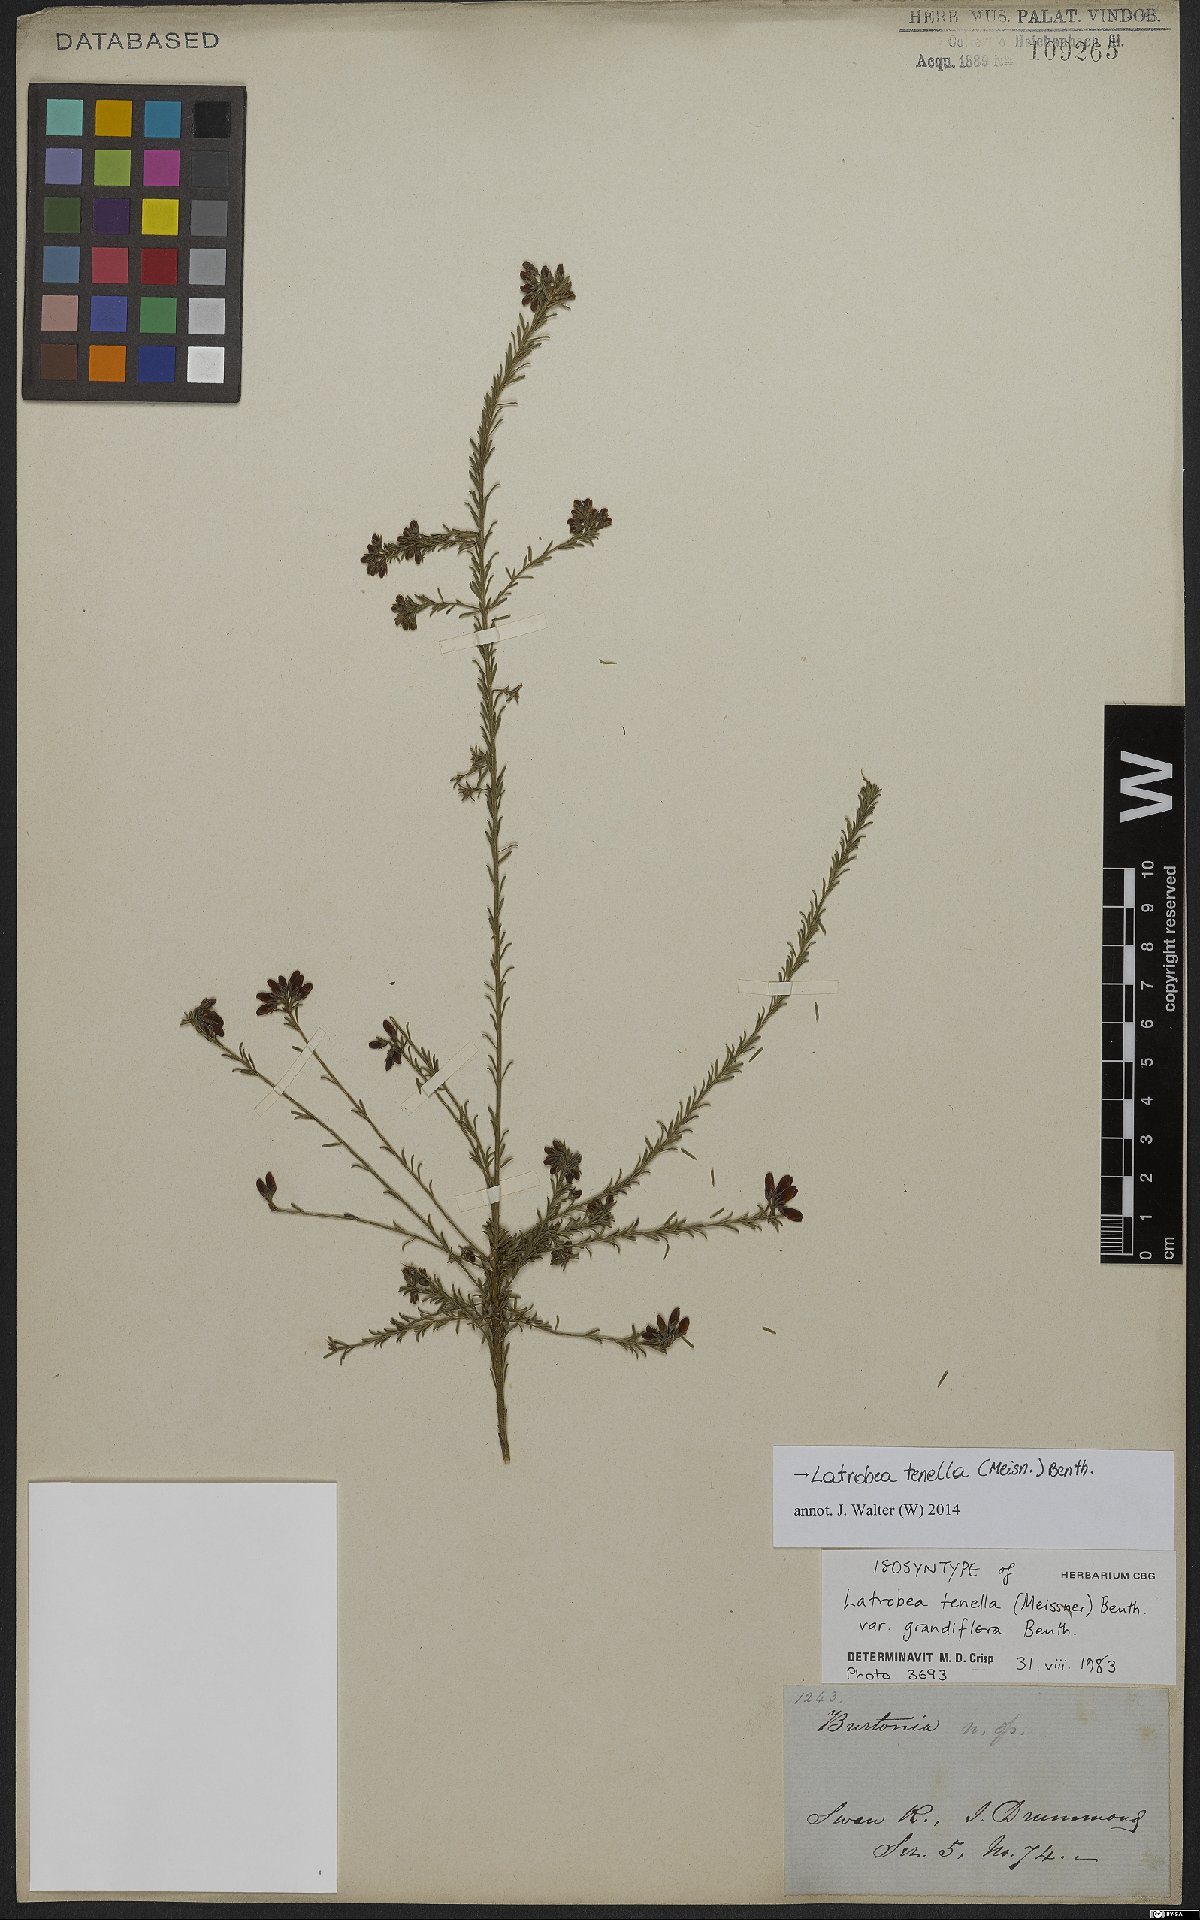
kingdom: Plantae
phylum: Tracheophyta
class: Magnoliopsida
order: Fabales
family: Fabaceae
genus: Latrobea
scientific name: Latrobea tenella
